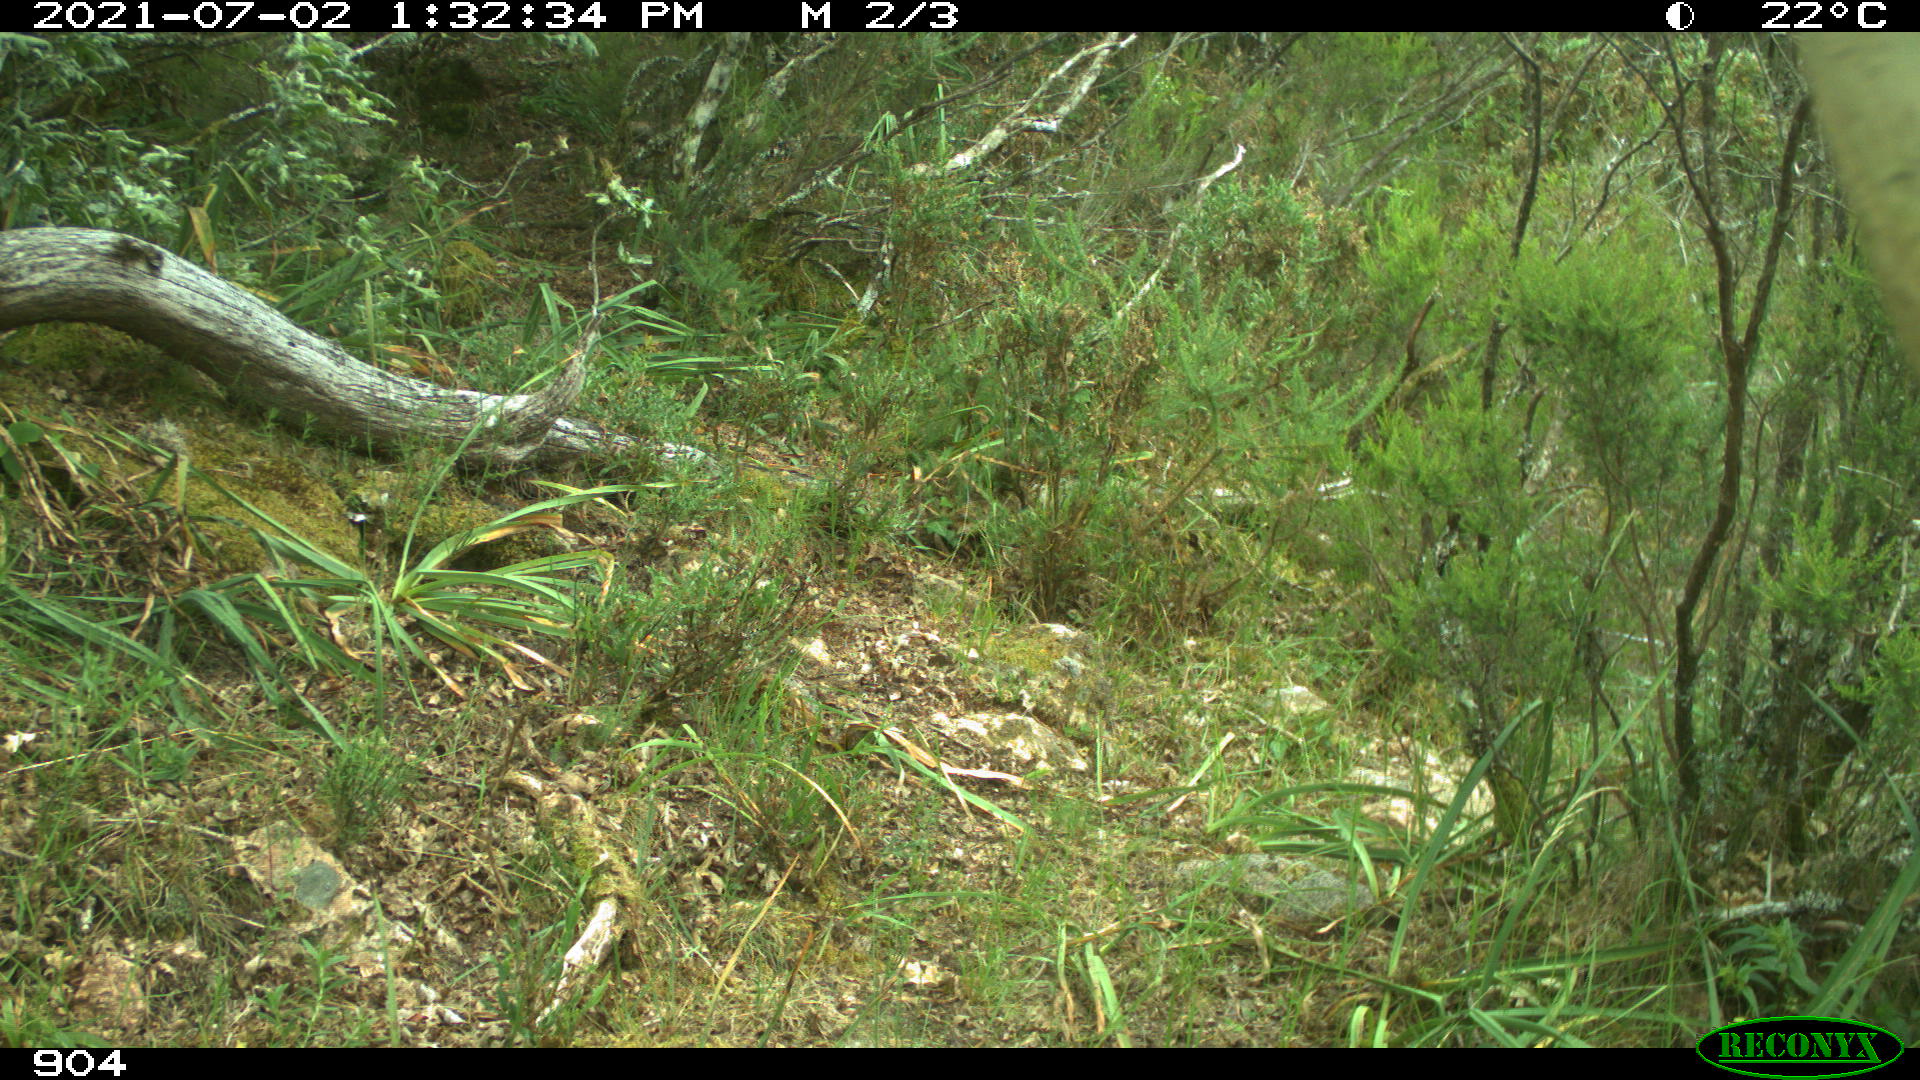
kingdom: Animalia
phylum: Chordata
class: Mammalia
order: Artiodactyla
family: Bovidae
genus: Bos
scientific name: Bos taurus
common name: Domesticated cattle
